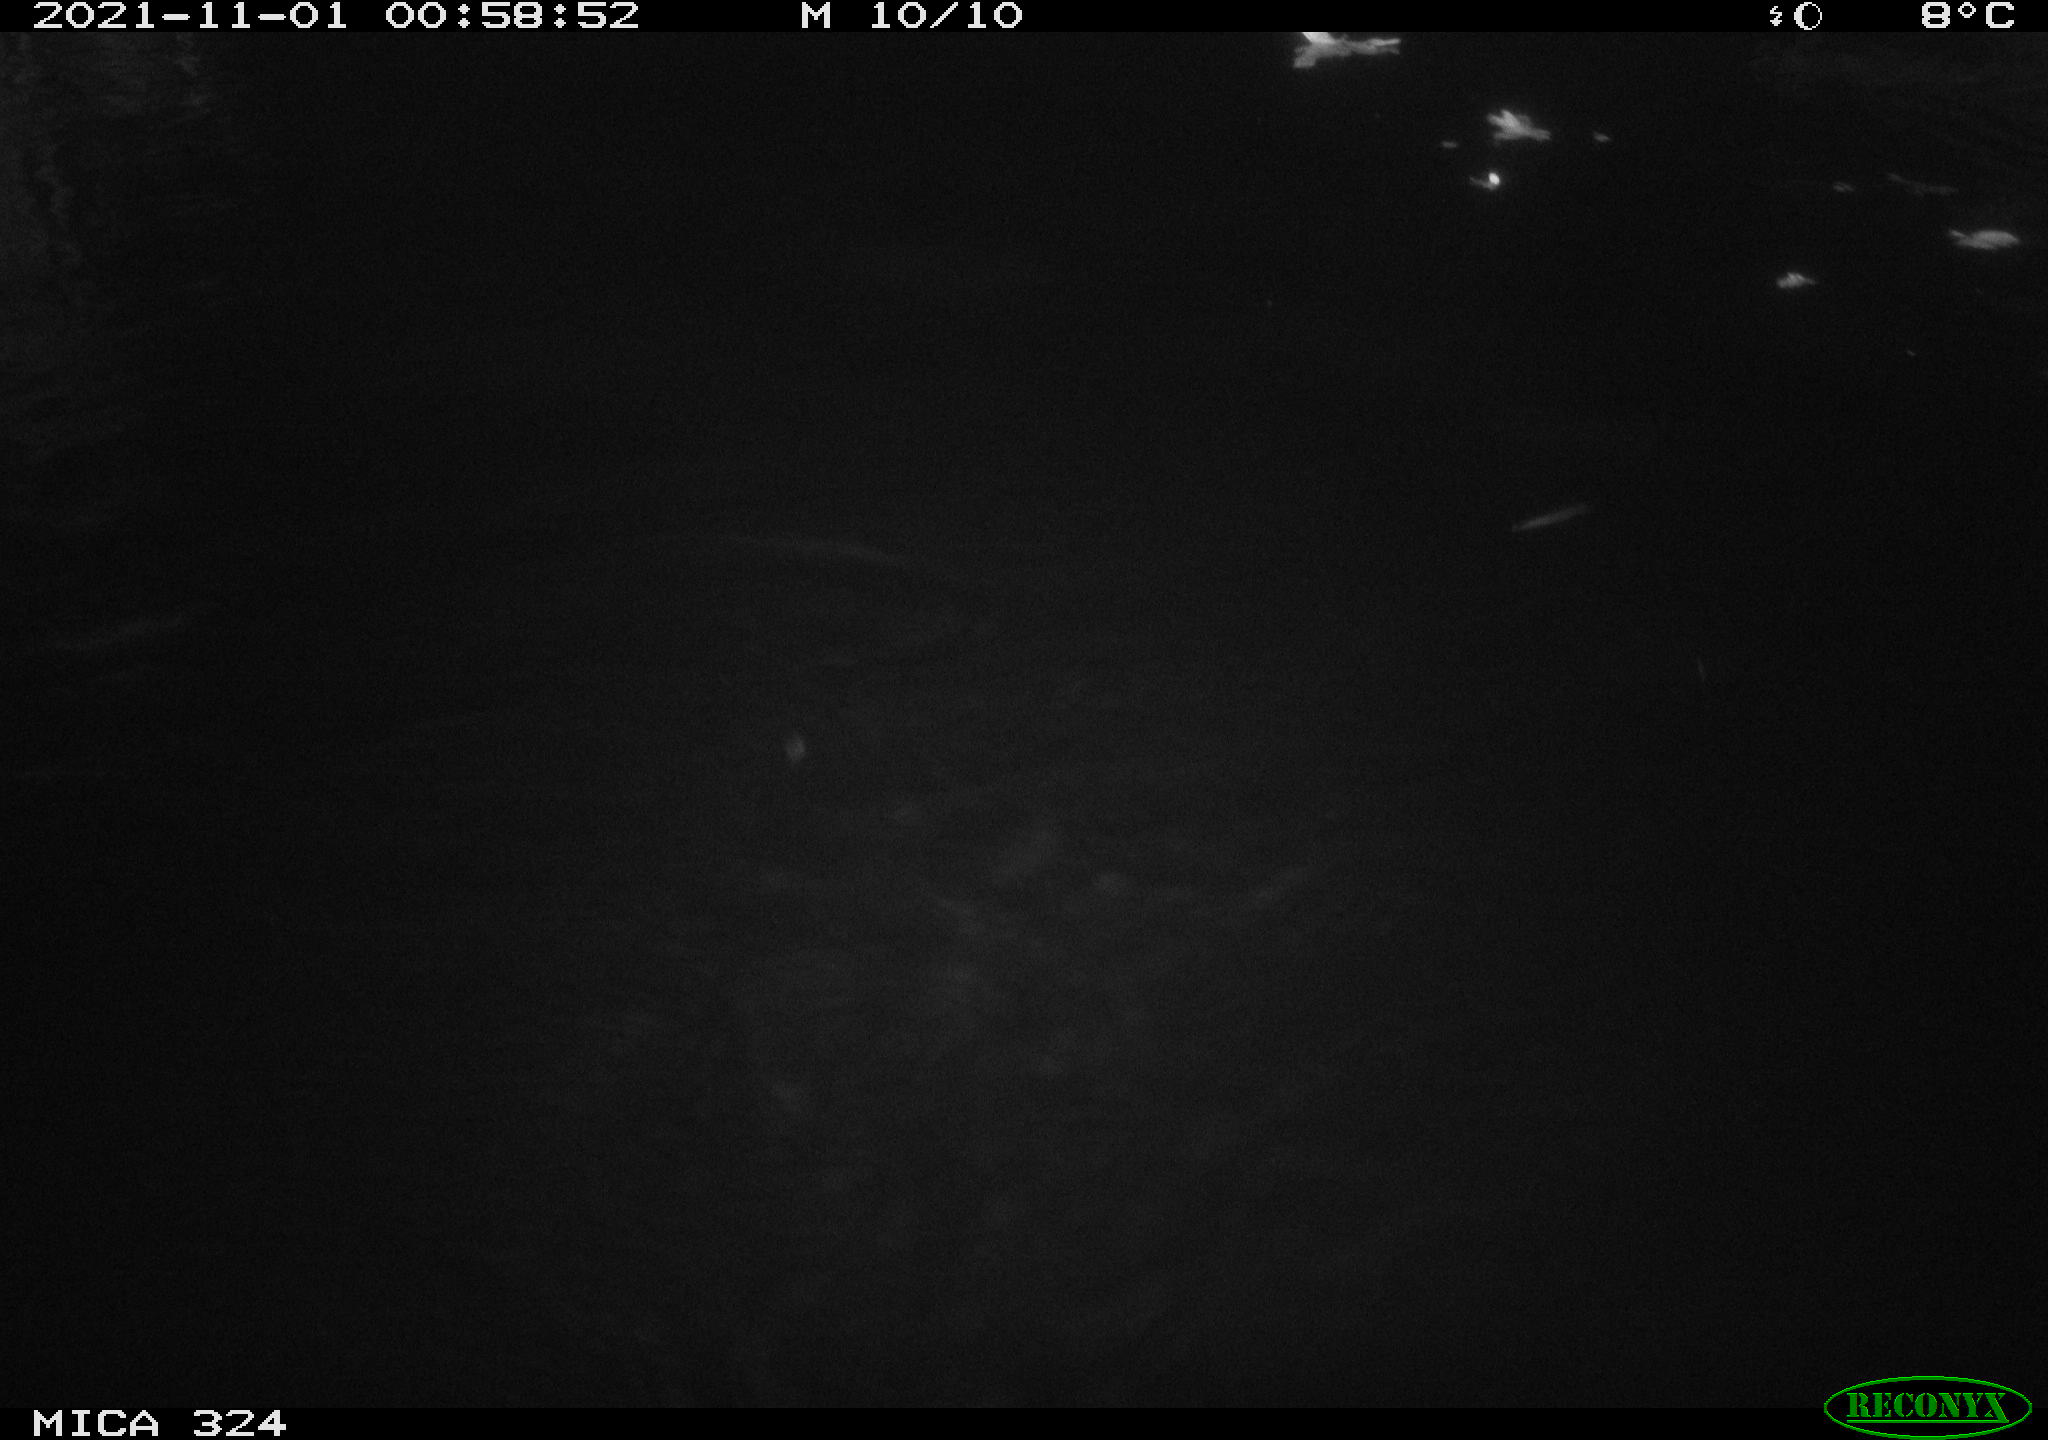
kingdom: Animalia
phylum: Chordata
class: Mammalia
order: Rodentia
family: Cricetidae
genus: Ondatra
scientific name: Ondatra zibethicus
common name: Muskrat
